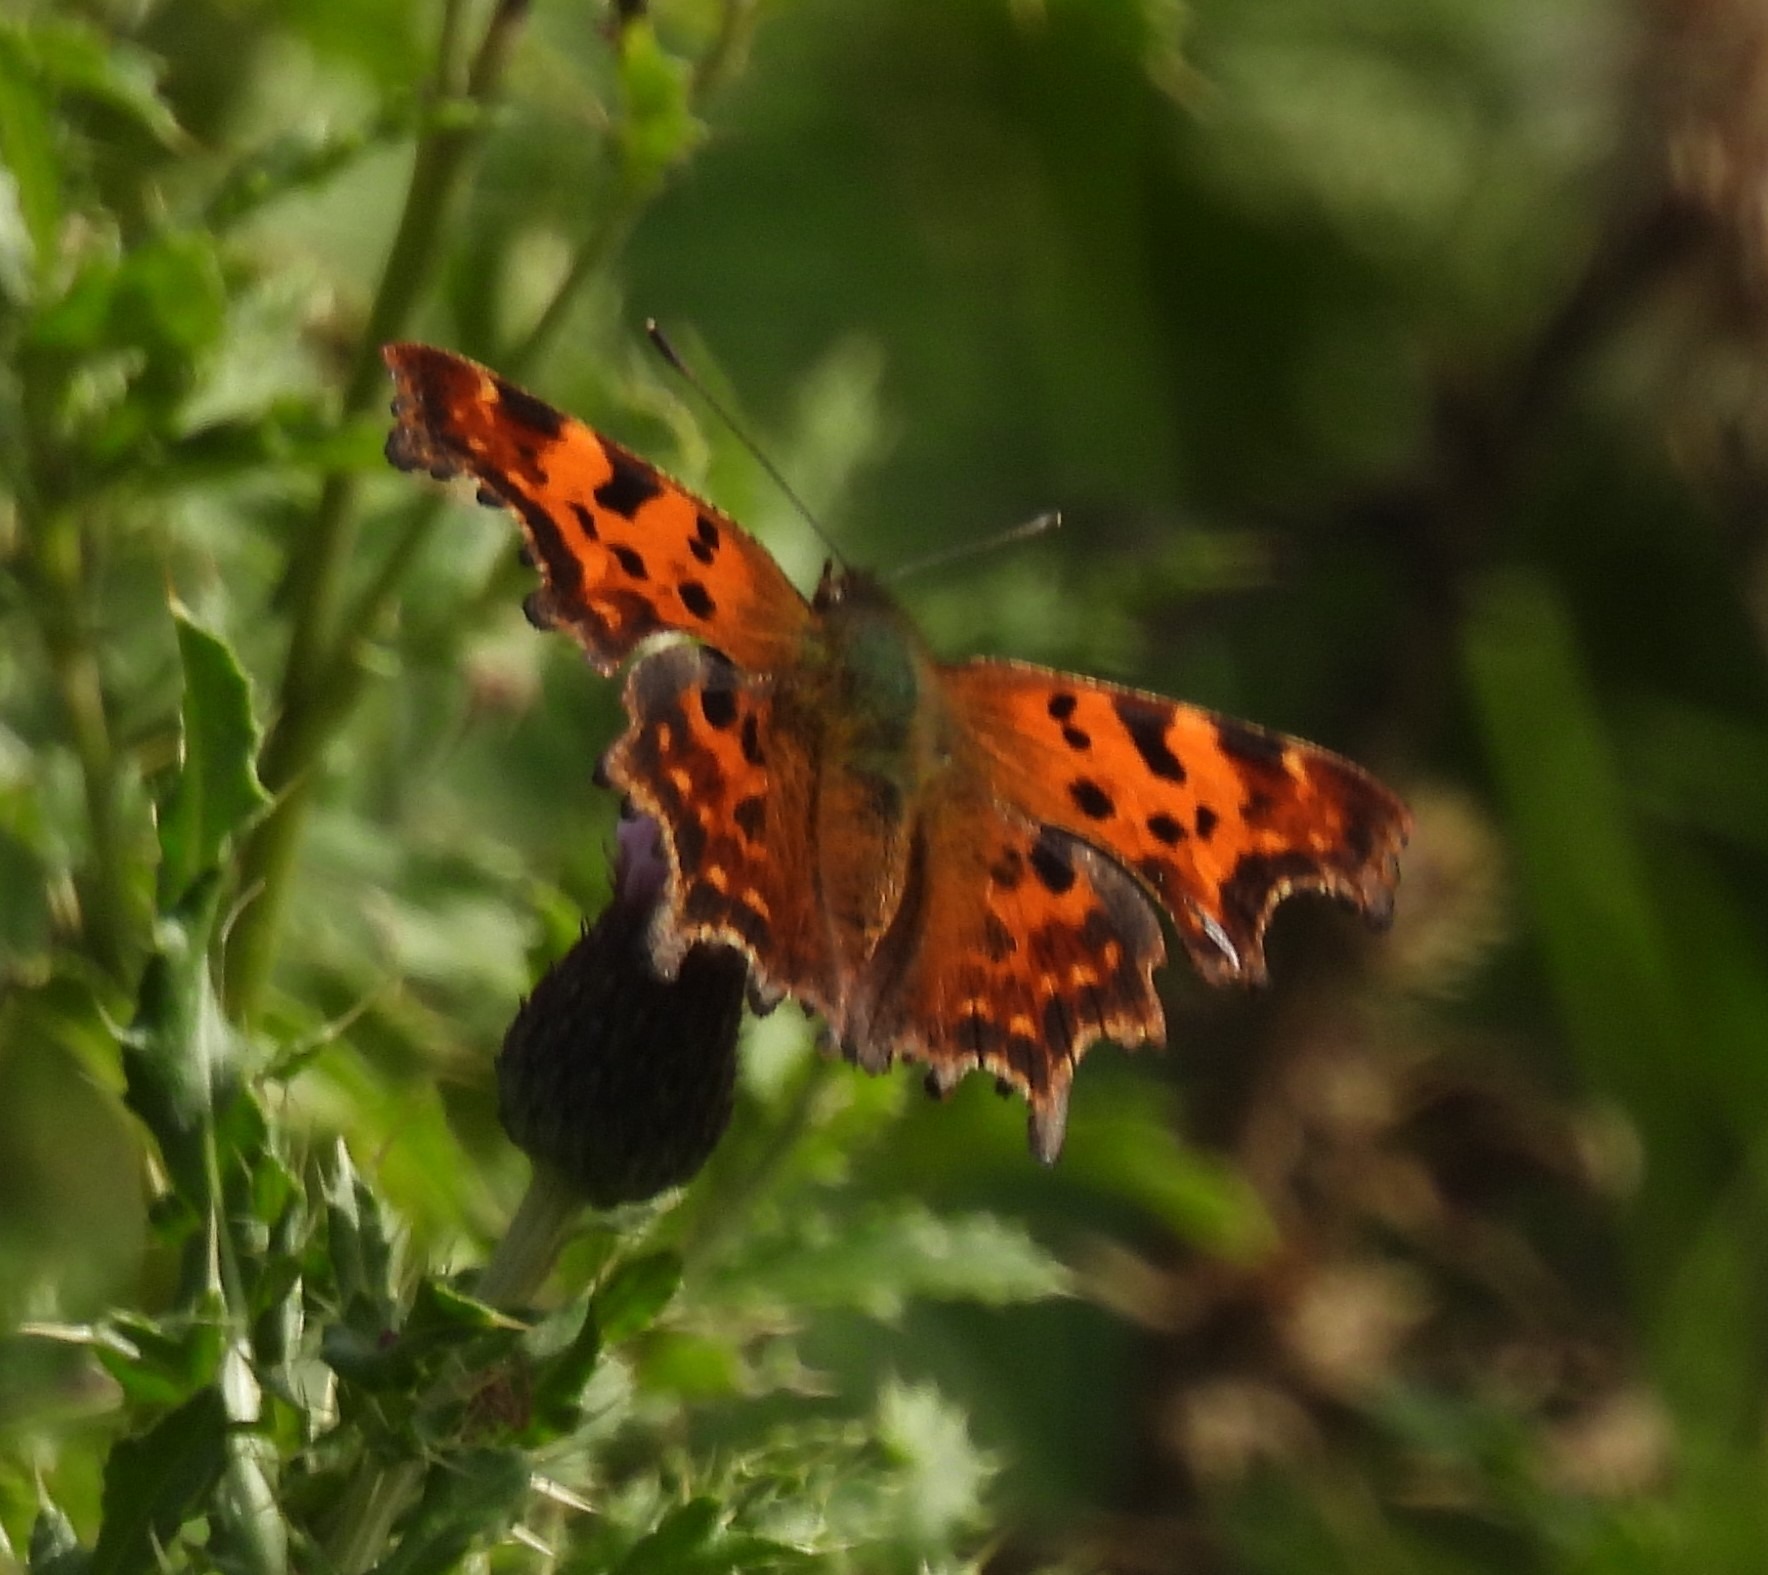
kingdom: Animalia
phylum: Arthropoda
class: Insecta
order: Lepidoptera
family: Nymphalidae
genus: Polygonia
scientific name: Polygonia c-album
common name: Det hvide C
